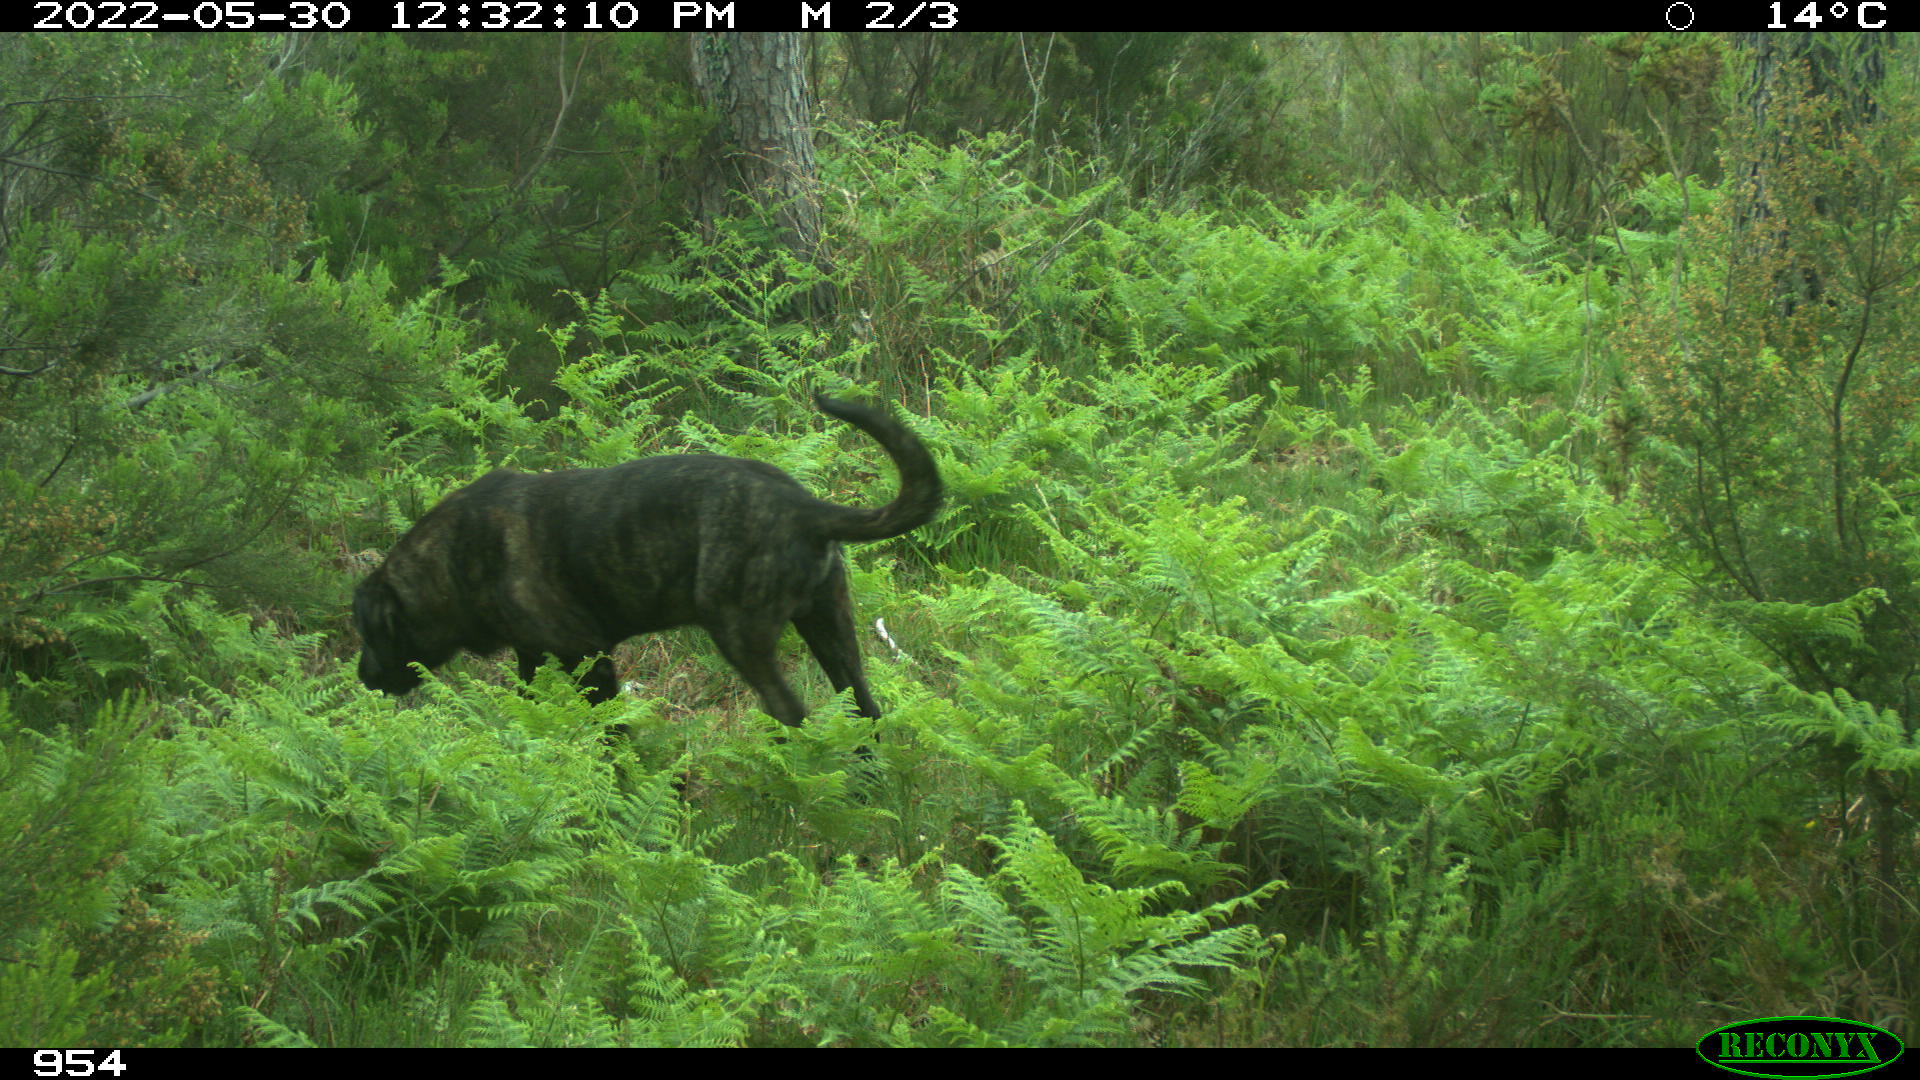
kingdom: Animalia
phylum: Chordata
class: Mammalia
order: Carnivora
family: Canidae
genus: Canis
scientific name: Canis lupus
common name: Gray wolf
